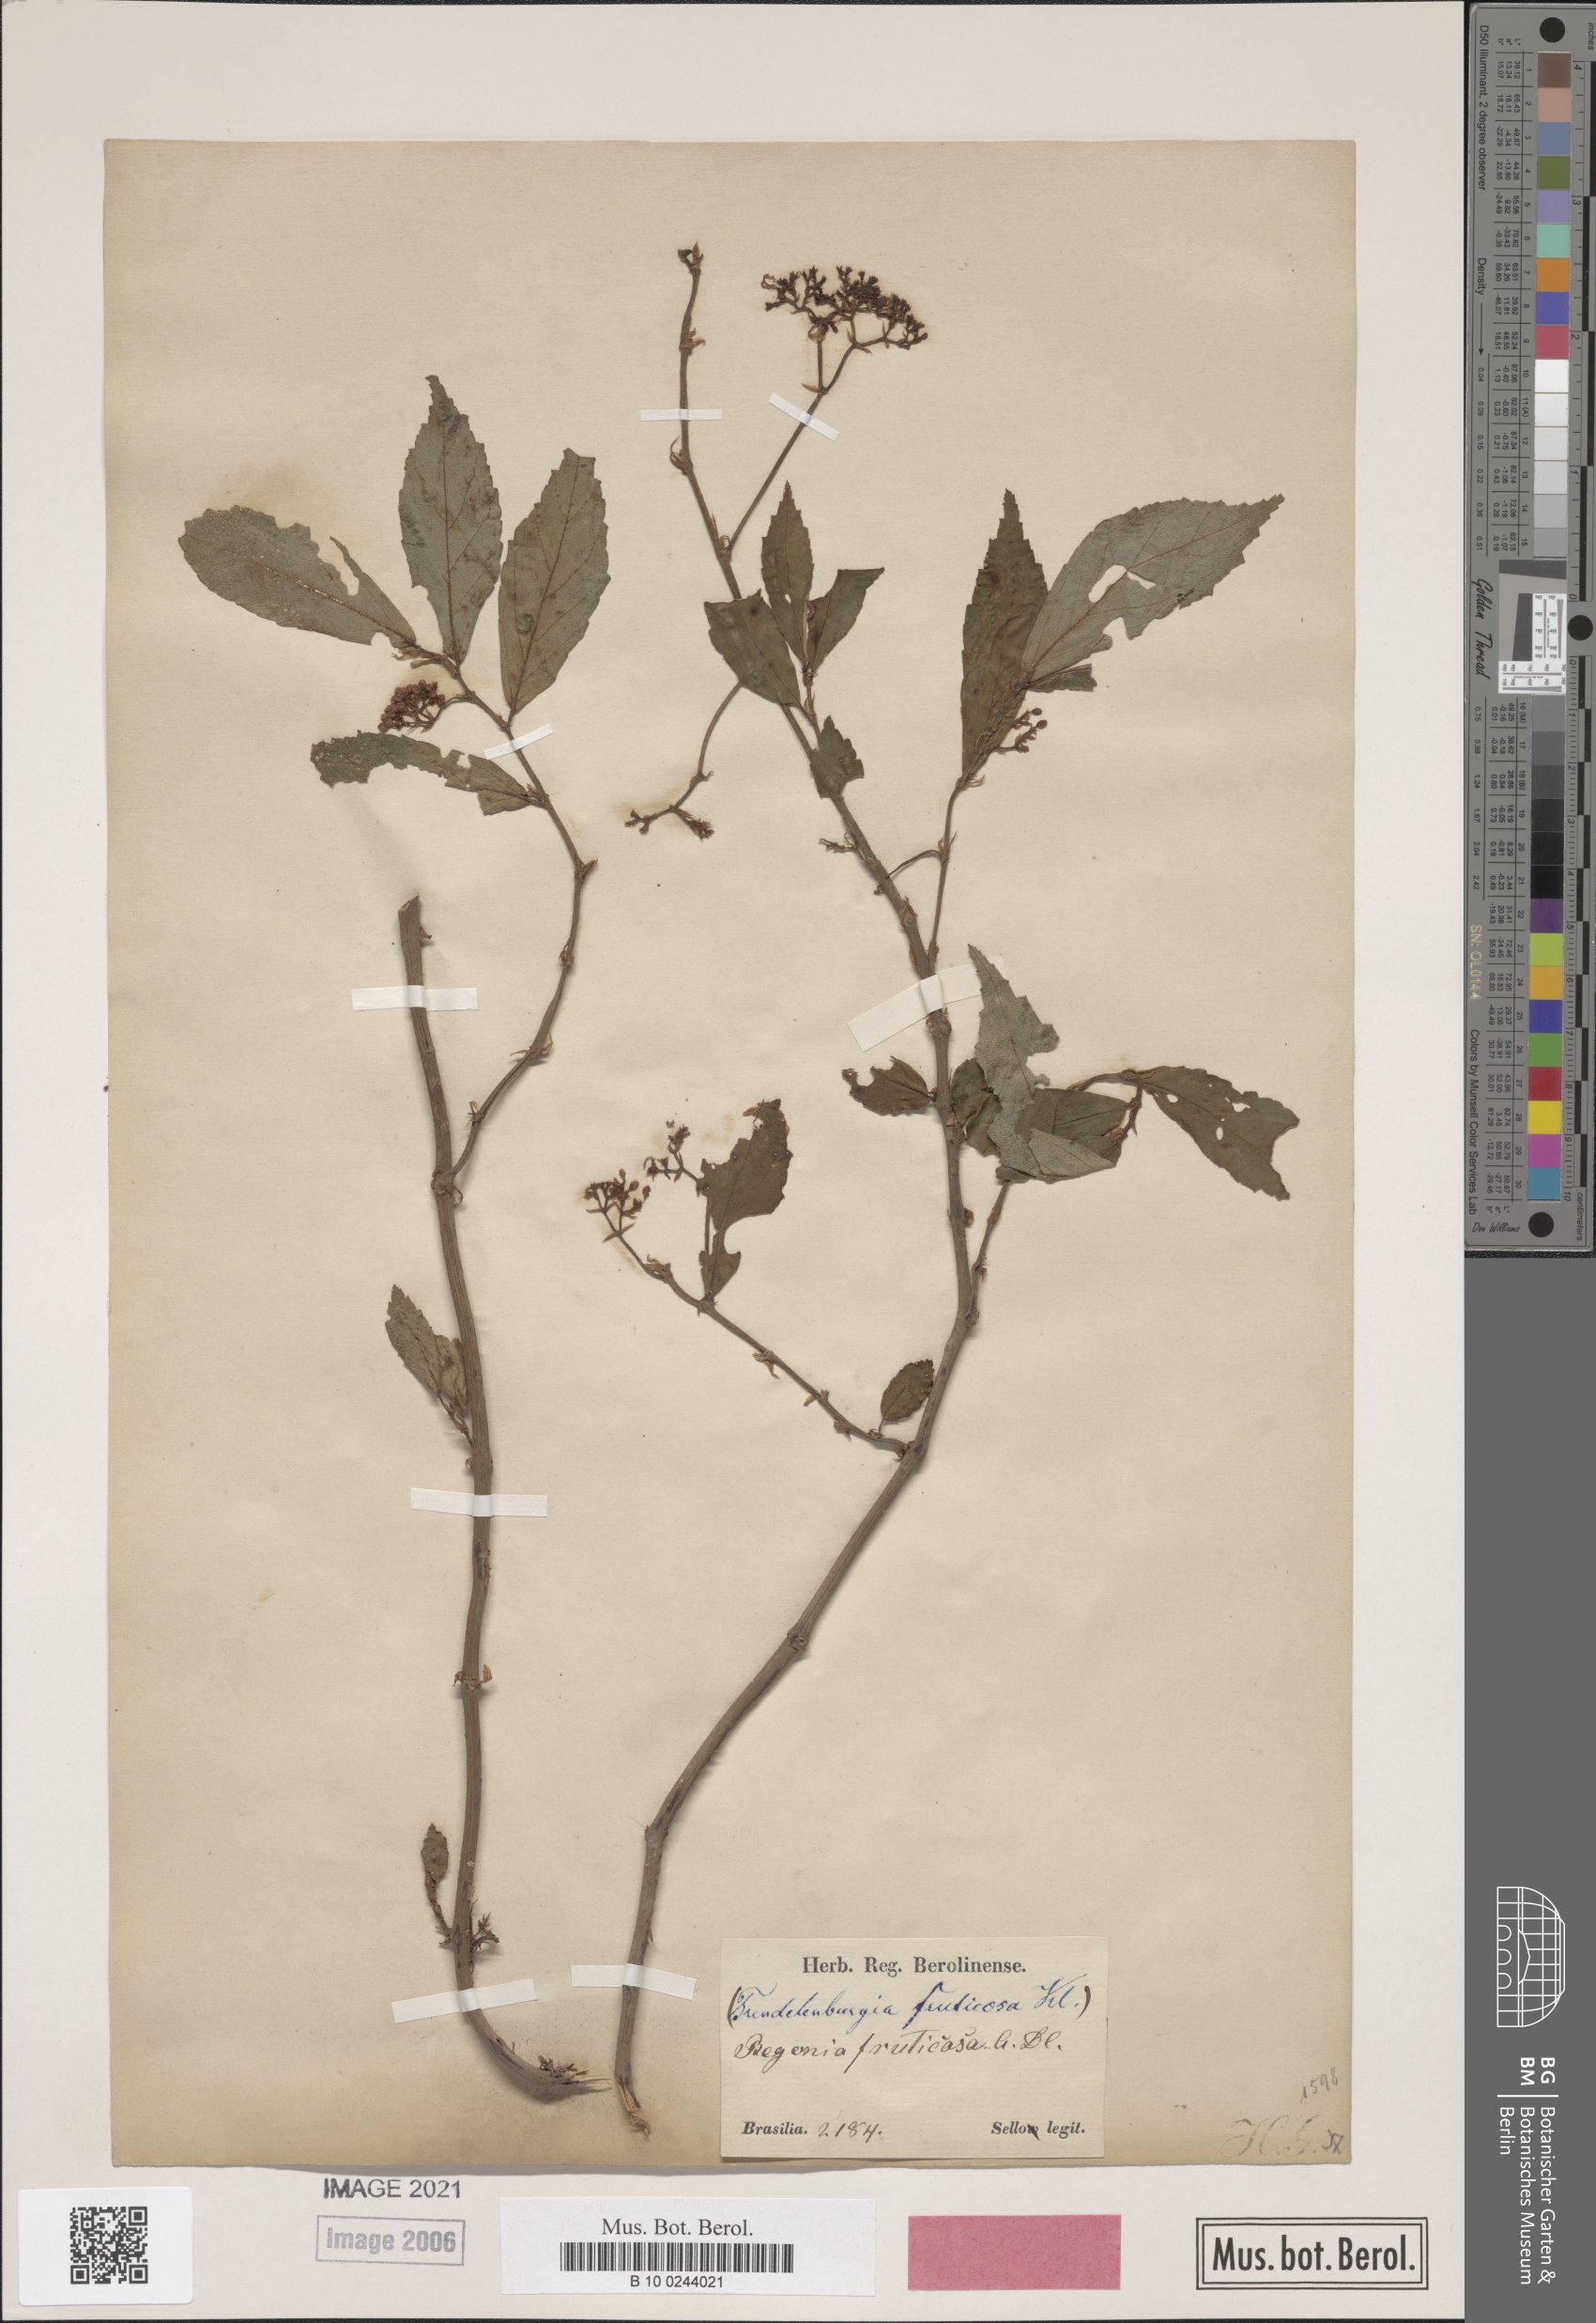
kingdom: Plantae
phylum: Tracheophyta
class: Magnoliopsida
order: Cucurbitales
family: Begoniaceae
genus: Begonia
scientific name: Begonia fruticosa
